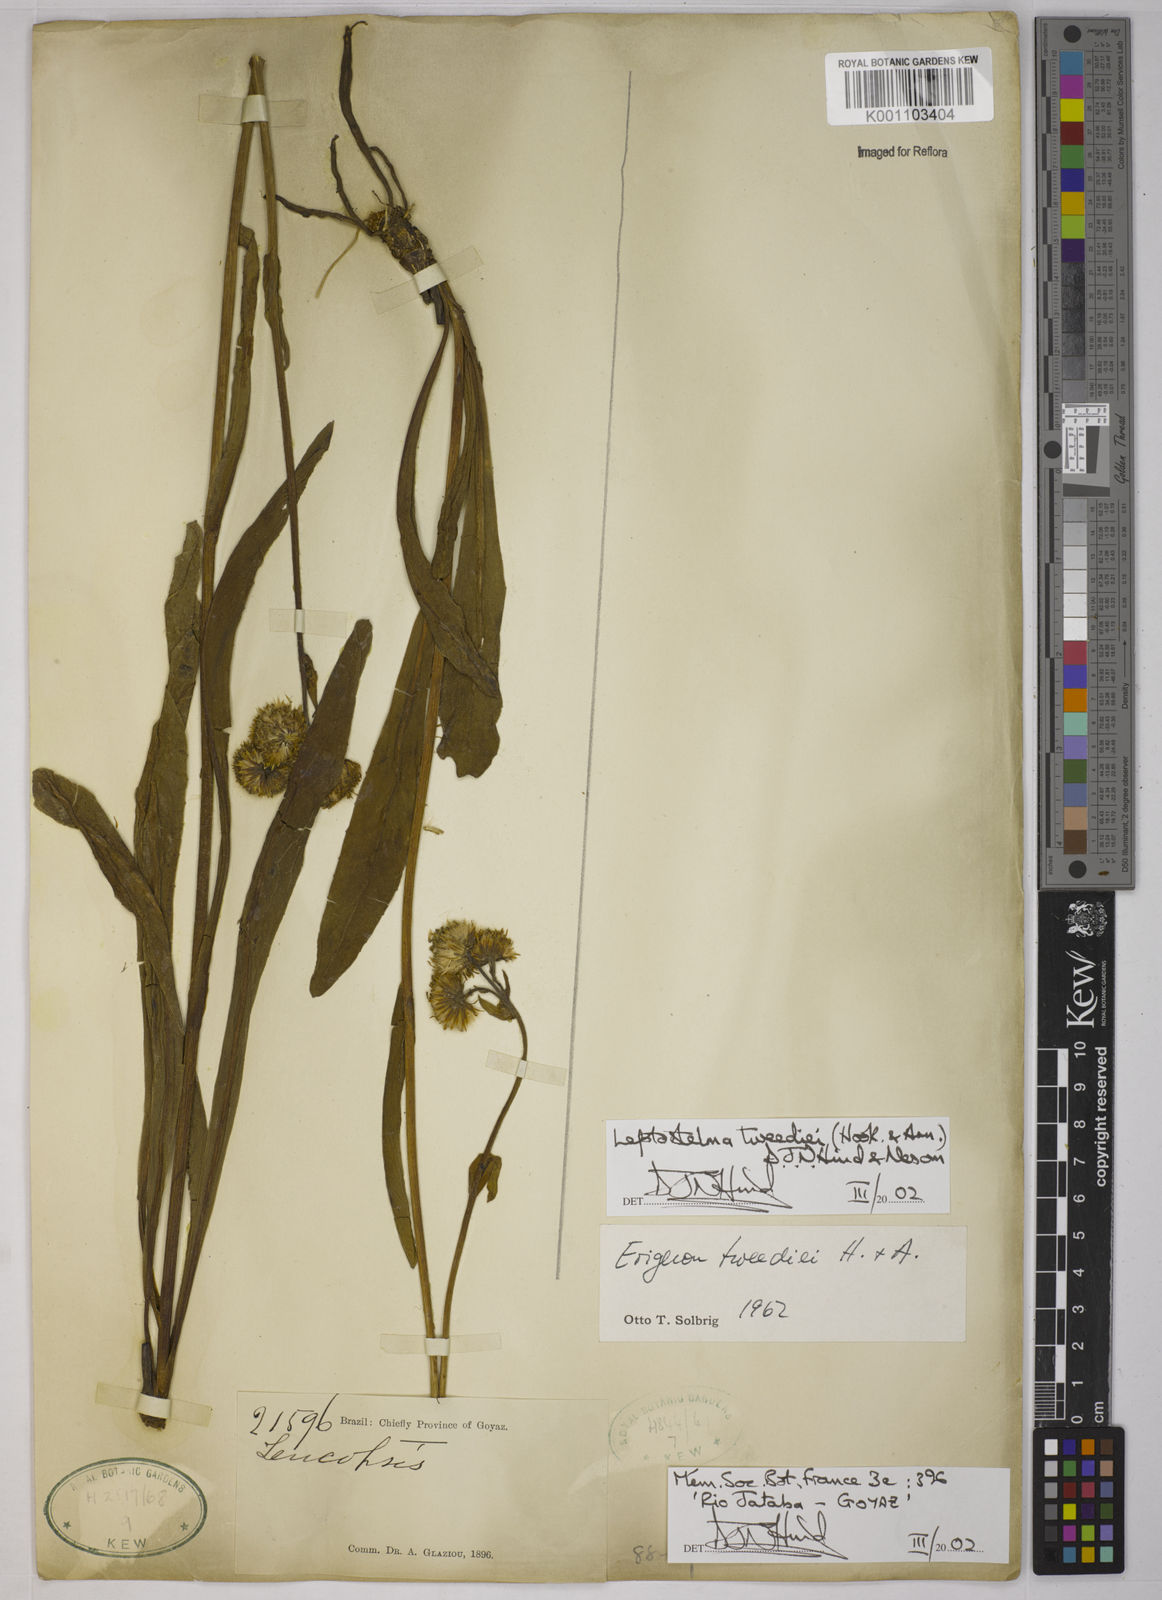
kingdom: Plantae
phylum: Tracheophyta
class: Magnoliopsida
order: Asterales
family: Asteraceae
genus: Leptostelma
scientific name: Leptostelma tweediei
